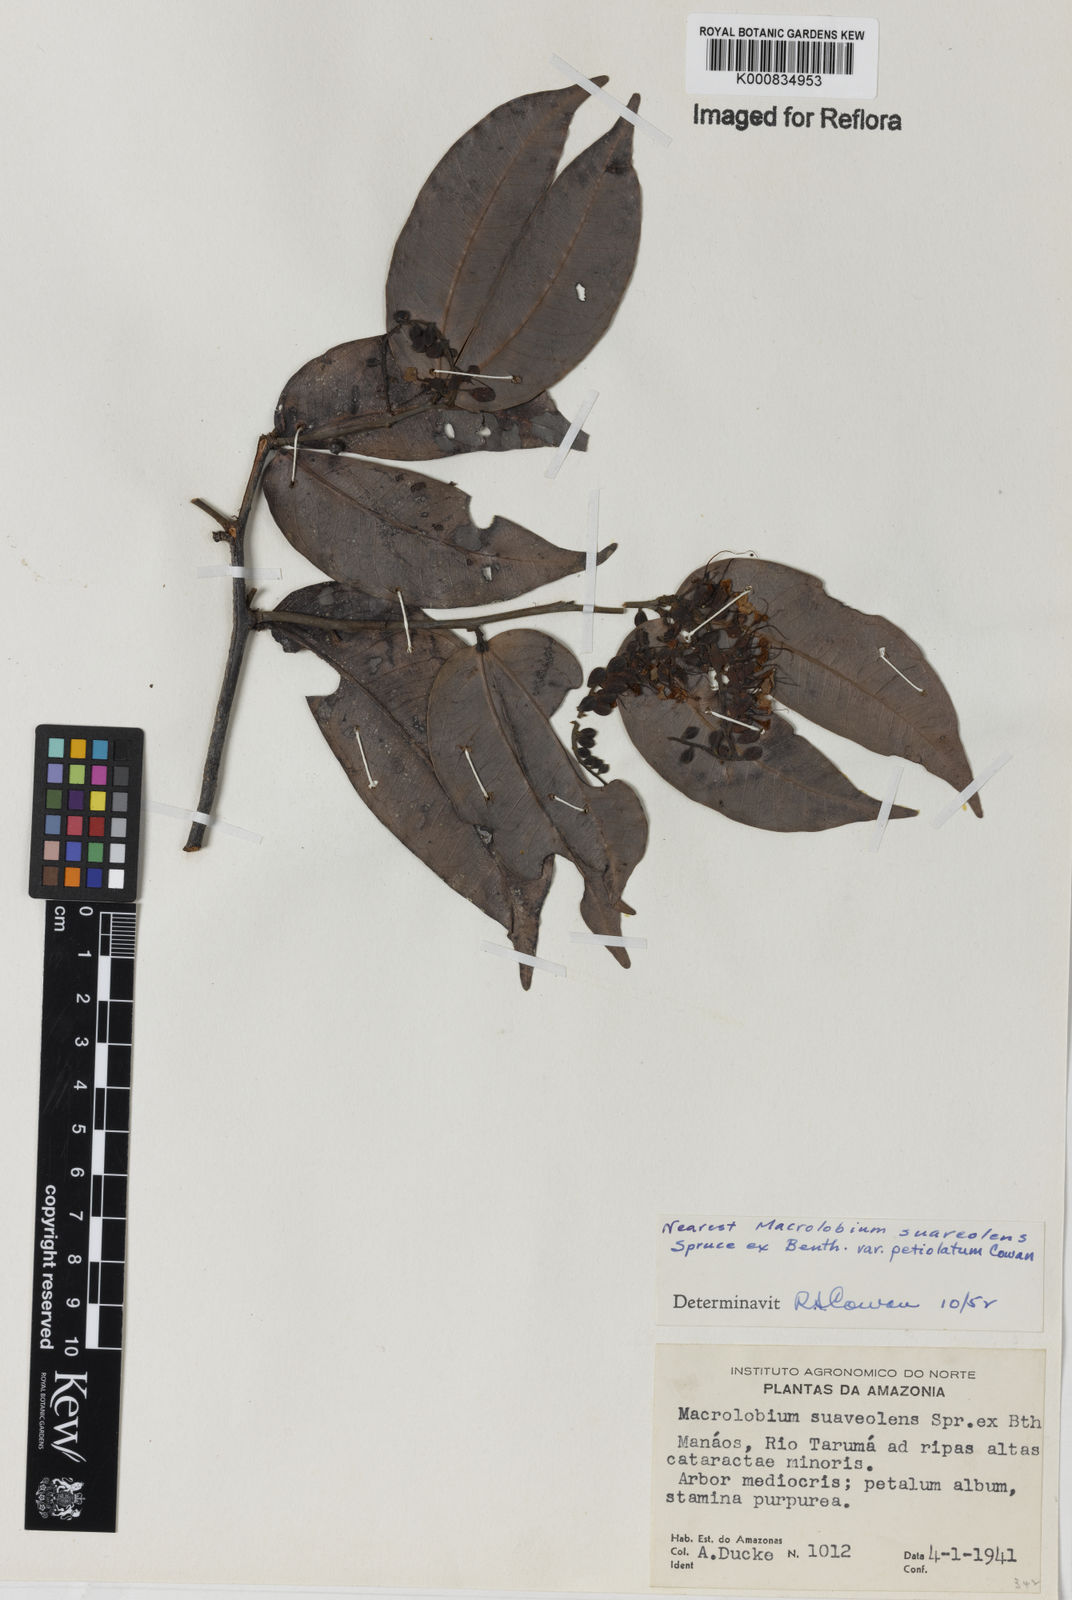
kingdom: Plantae
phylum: Tracheophyta
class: Magnoliopsida
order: Fabales
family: Fabaceae
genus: Macrolobium
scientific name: Macrolobium suaveolens
